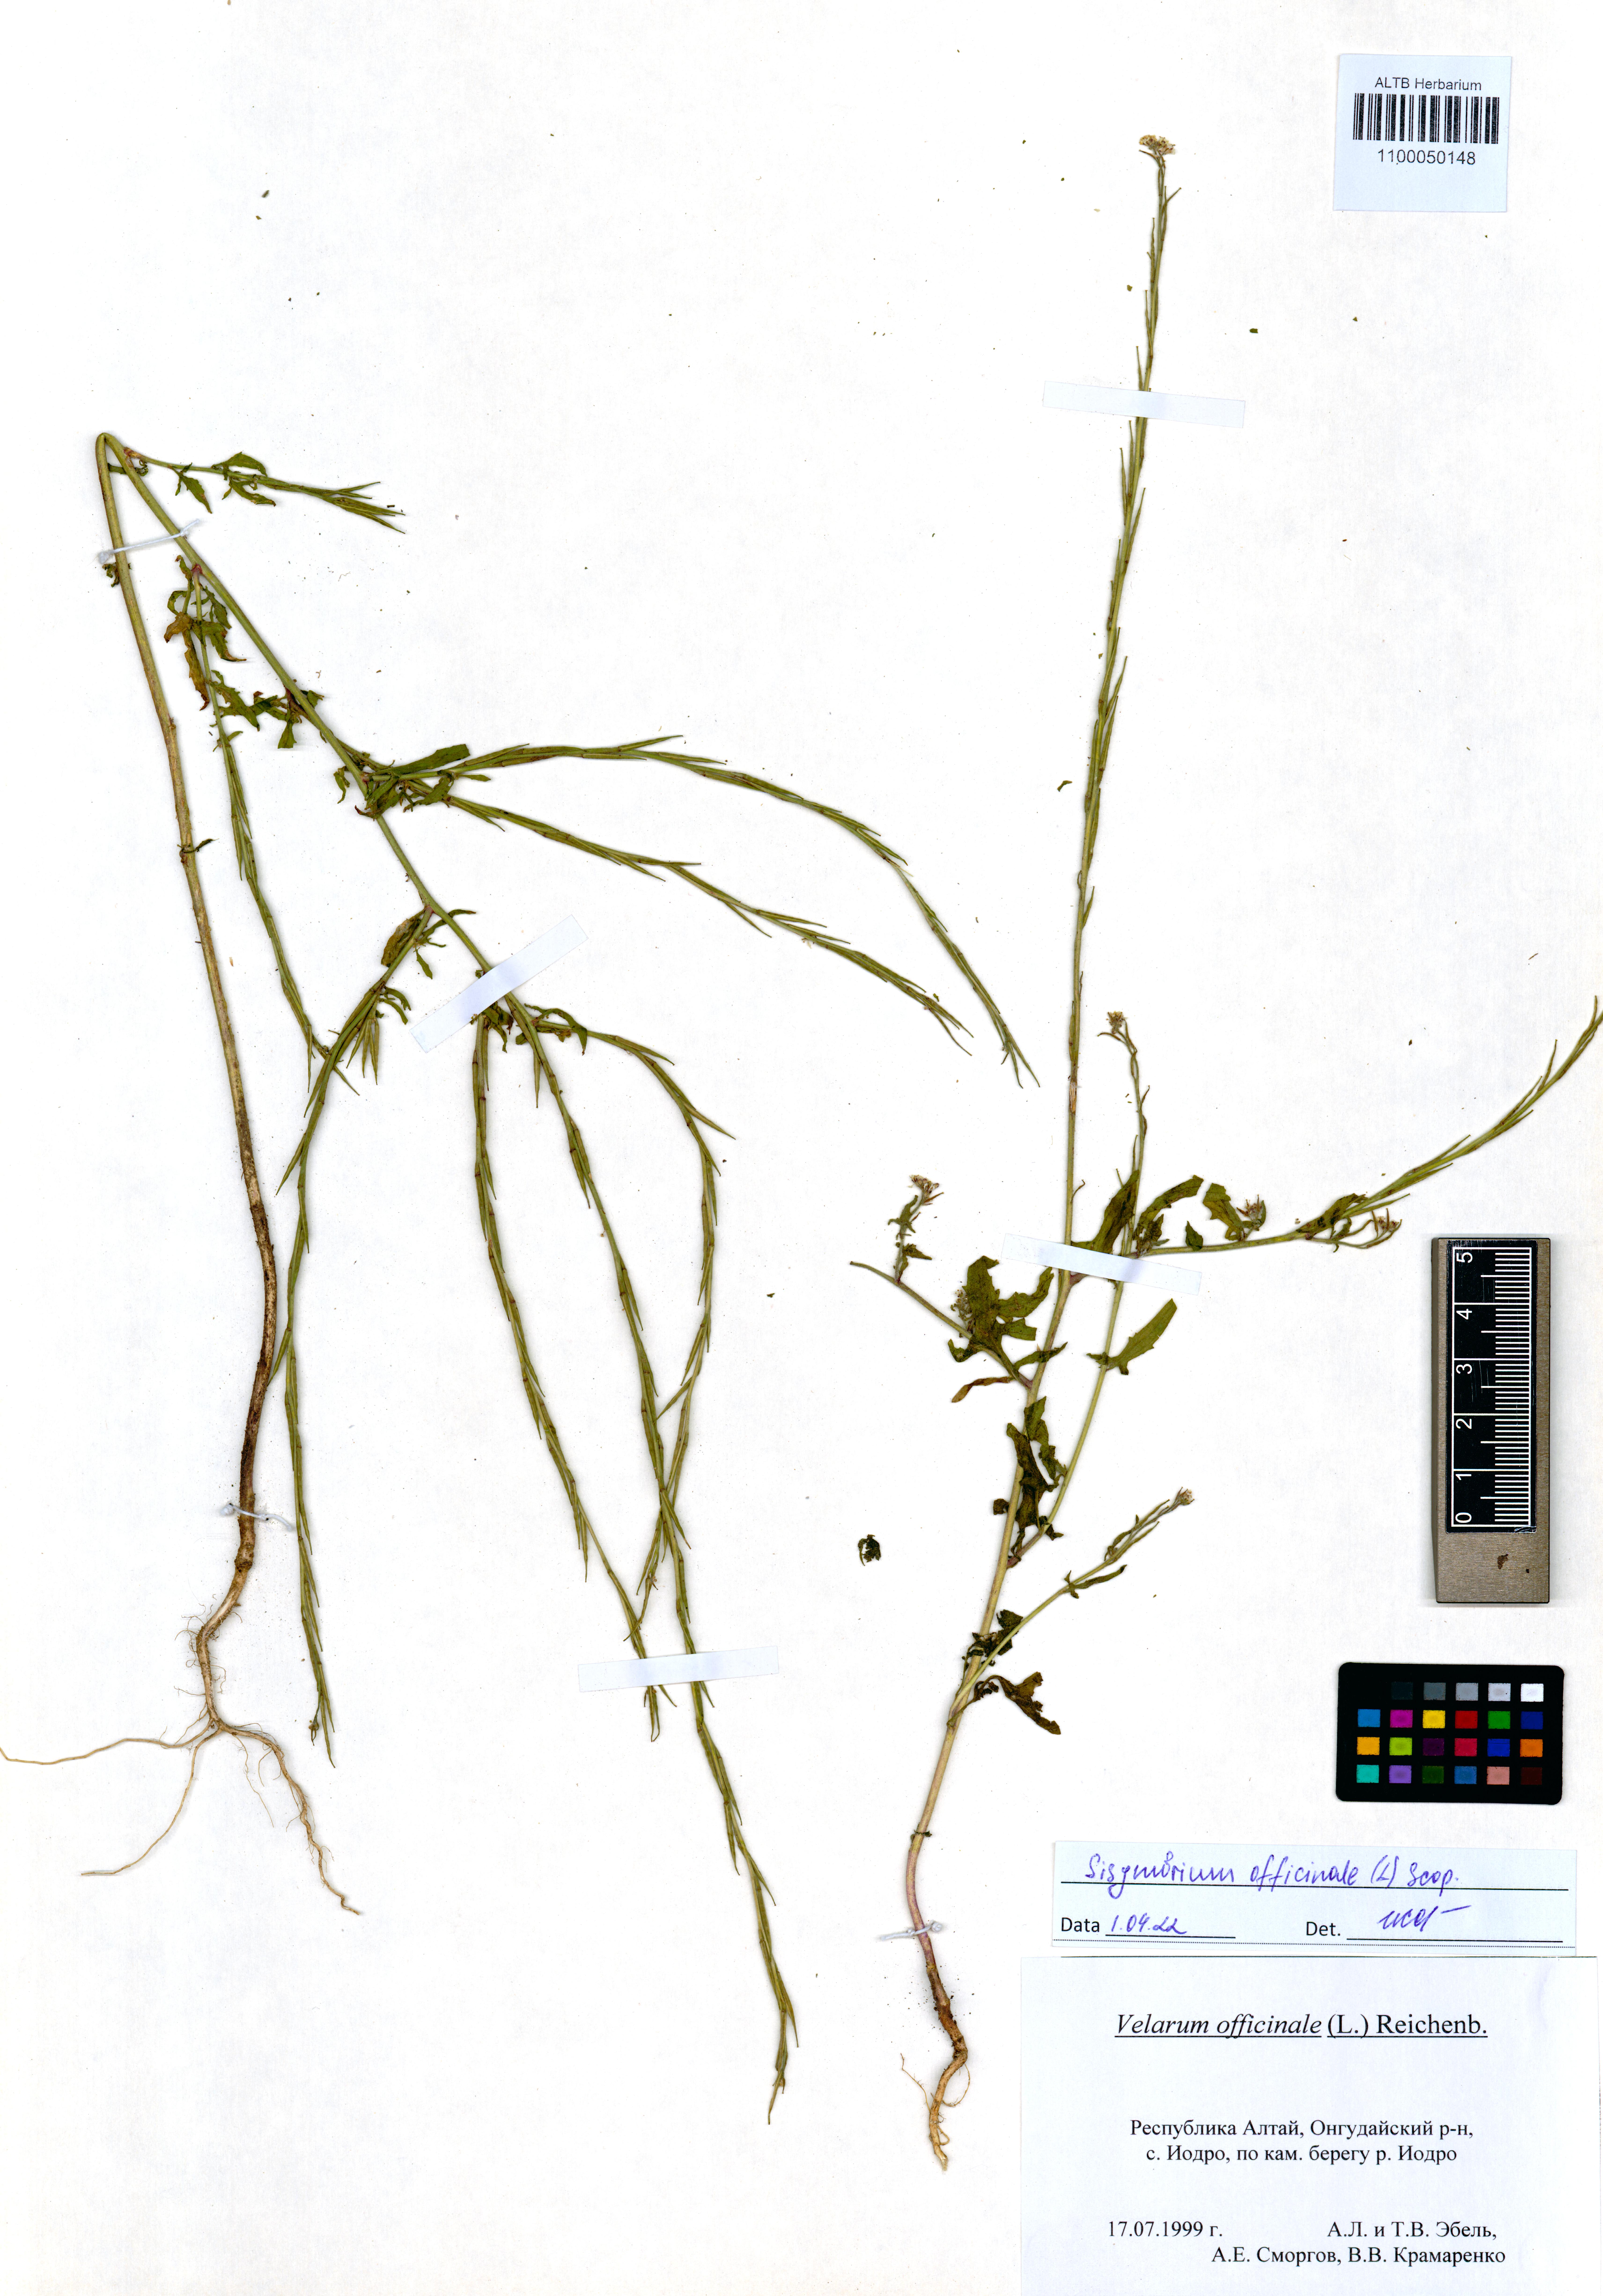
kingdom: Plantae
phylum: Tracheophyta
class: Magnoliopsida
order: Brassicales
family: Brassicaceae
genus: Sisymbrium
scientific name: Sisymbrium officinale
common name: Hedge mustard
